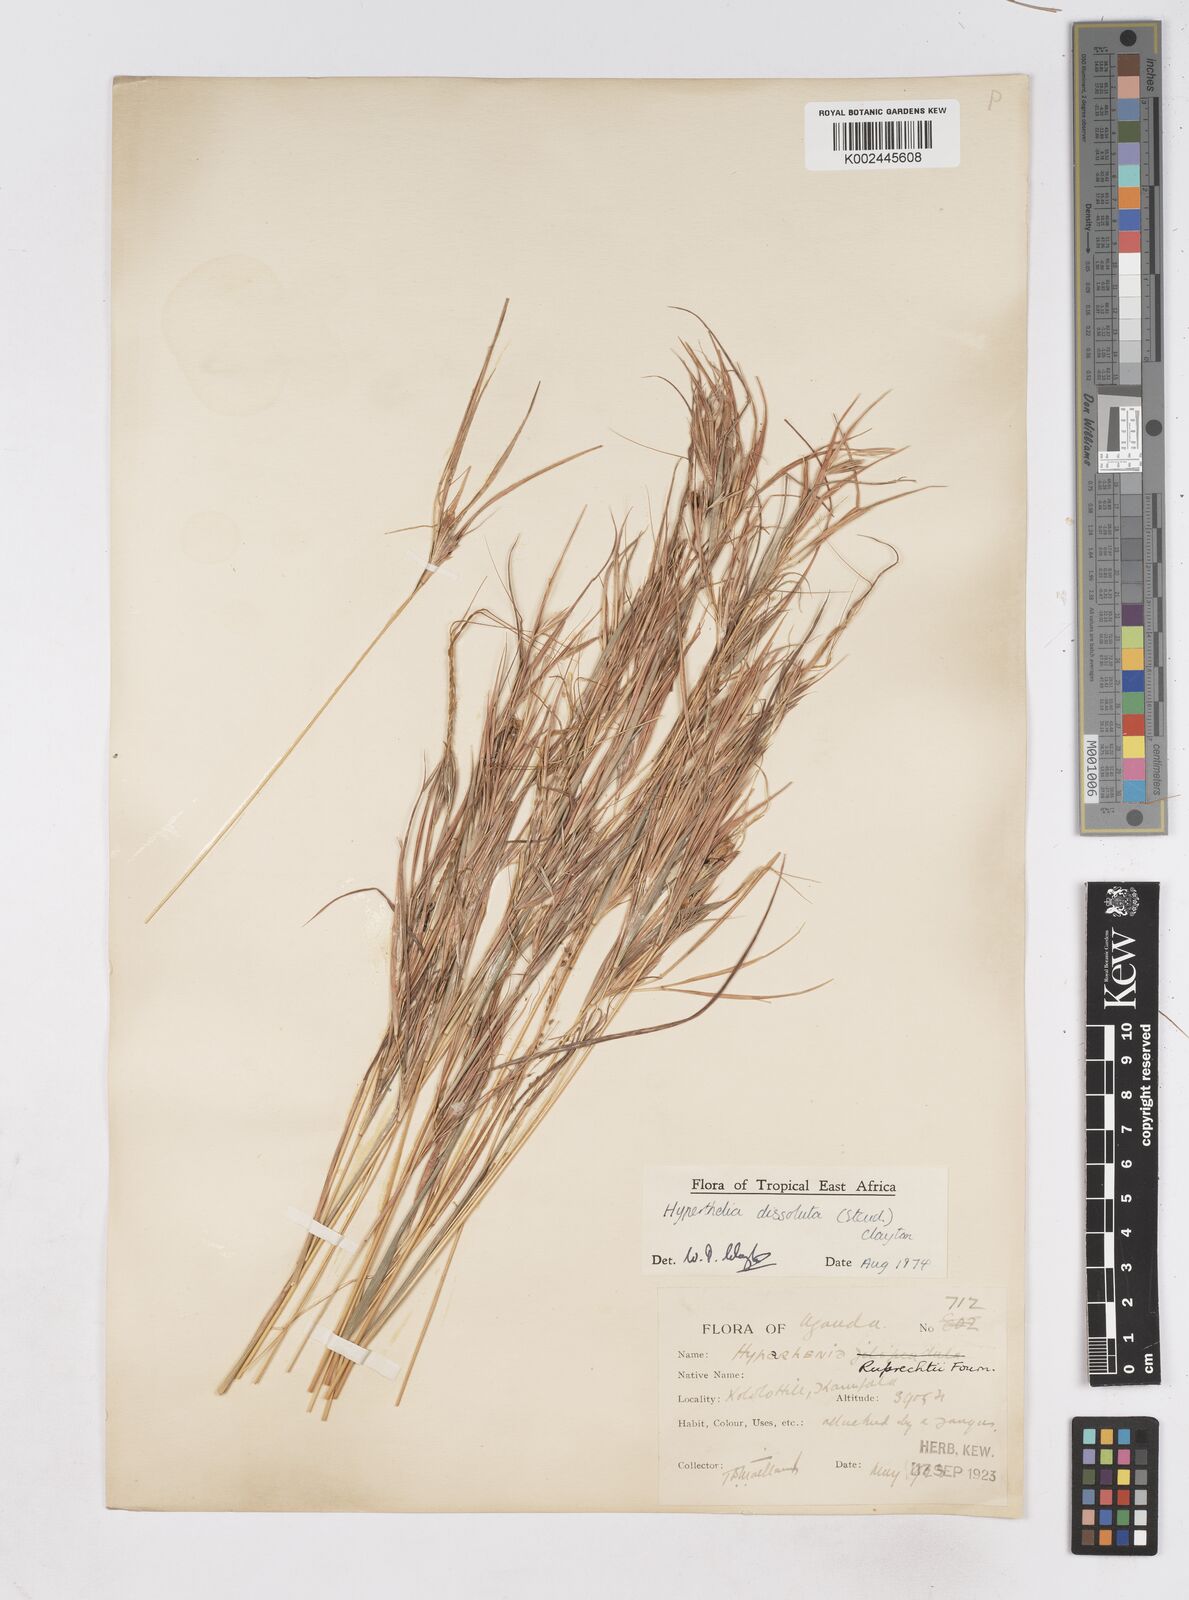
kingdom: Plantae
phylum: Tracheophyta
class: Liliopsida
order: Poales
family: Poaceae
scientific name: Poaceae
